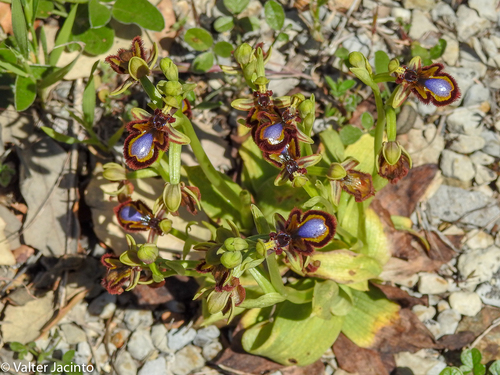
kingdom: Plantae
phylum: Tracheophyta
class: Liliopsida
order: Asparagales
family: Orchidaceae
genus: Ophrys
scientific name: Ophrys speculum
